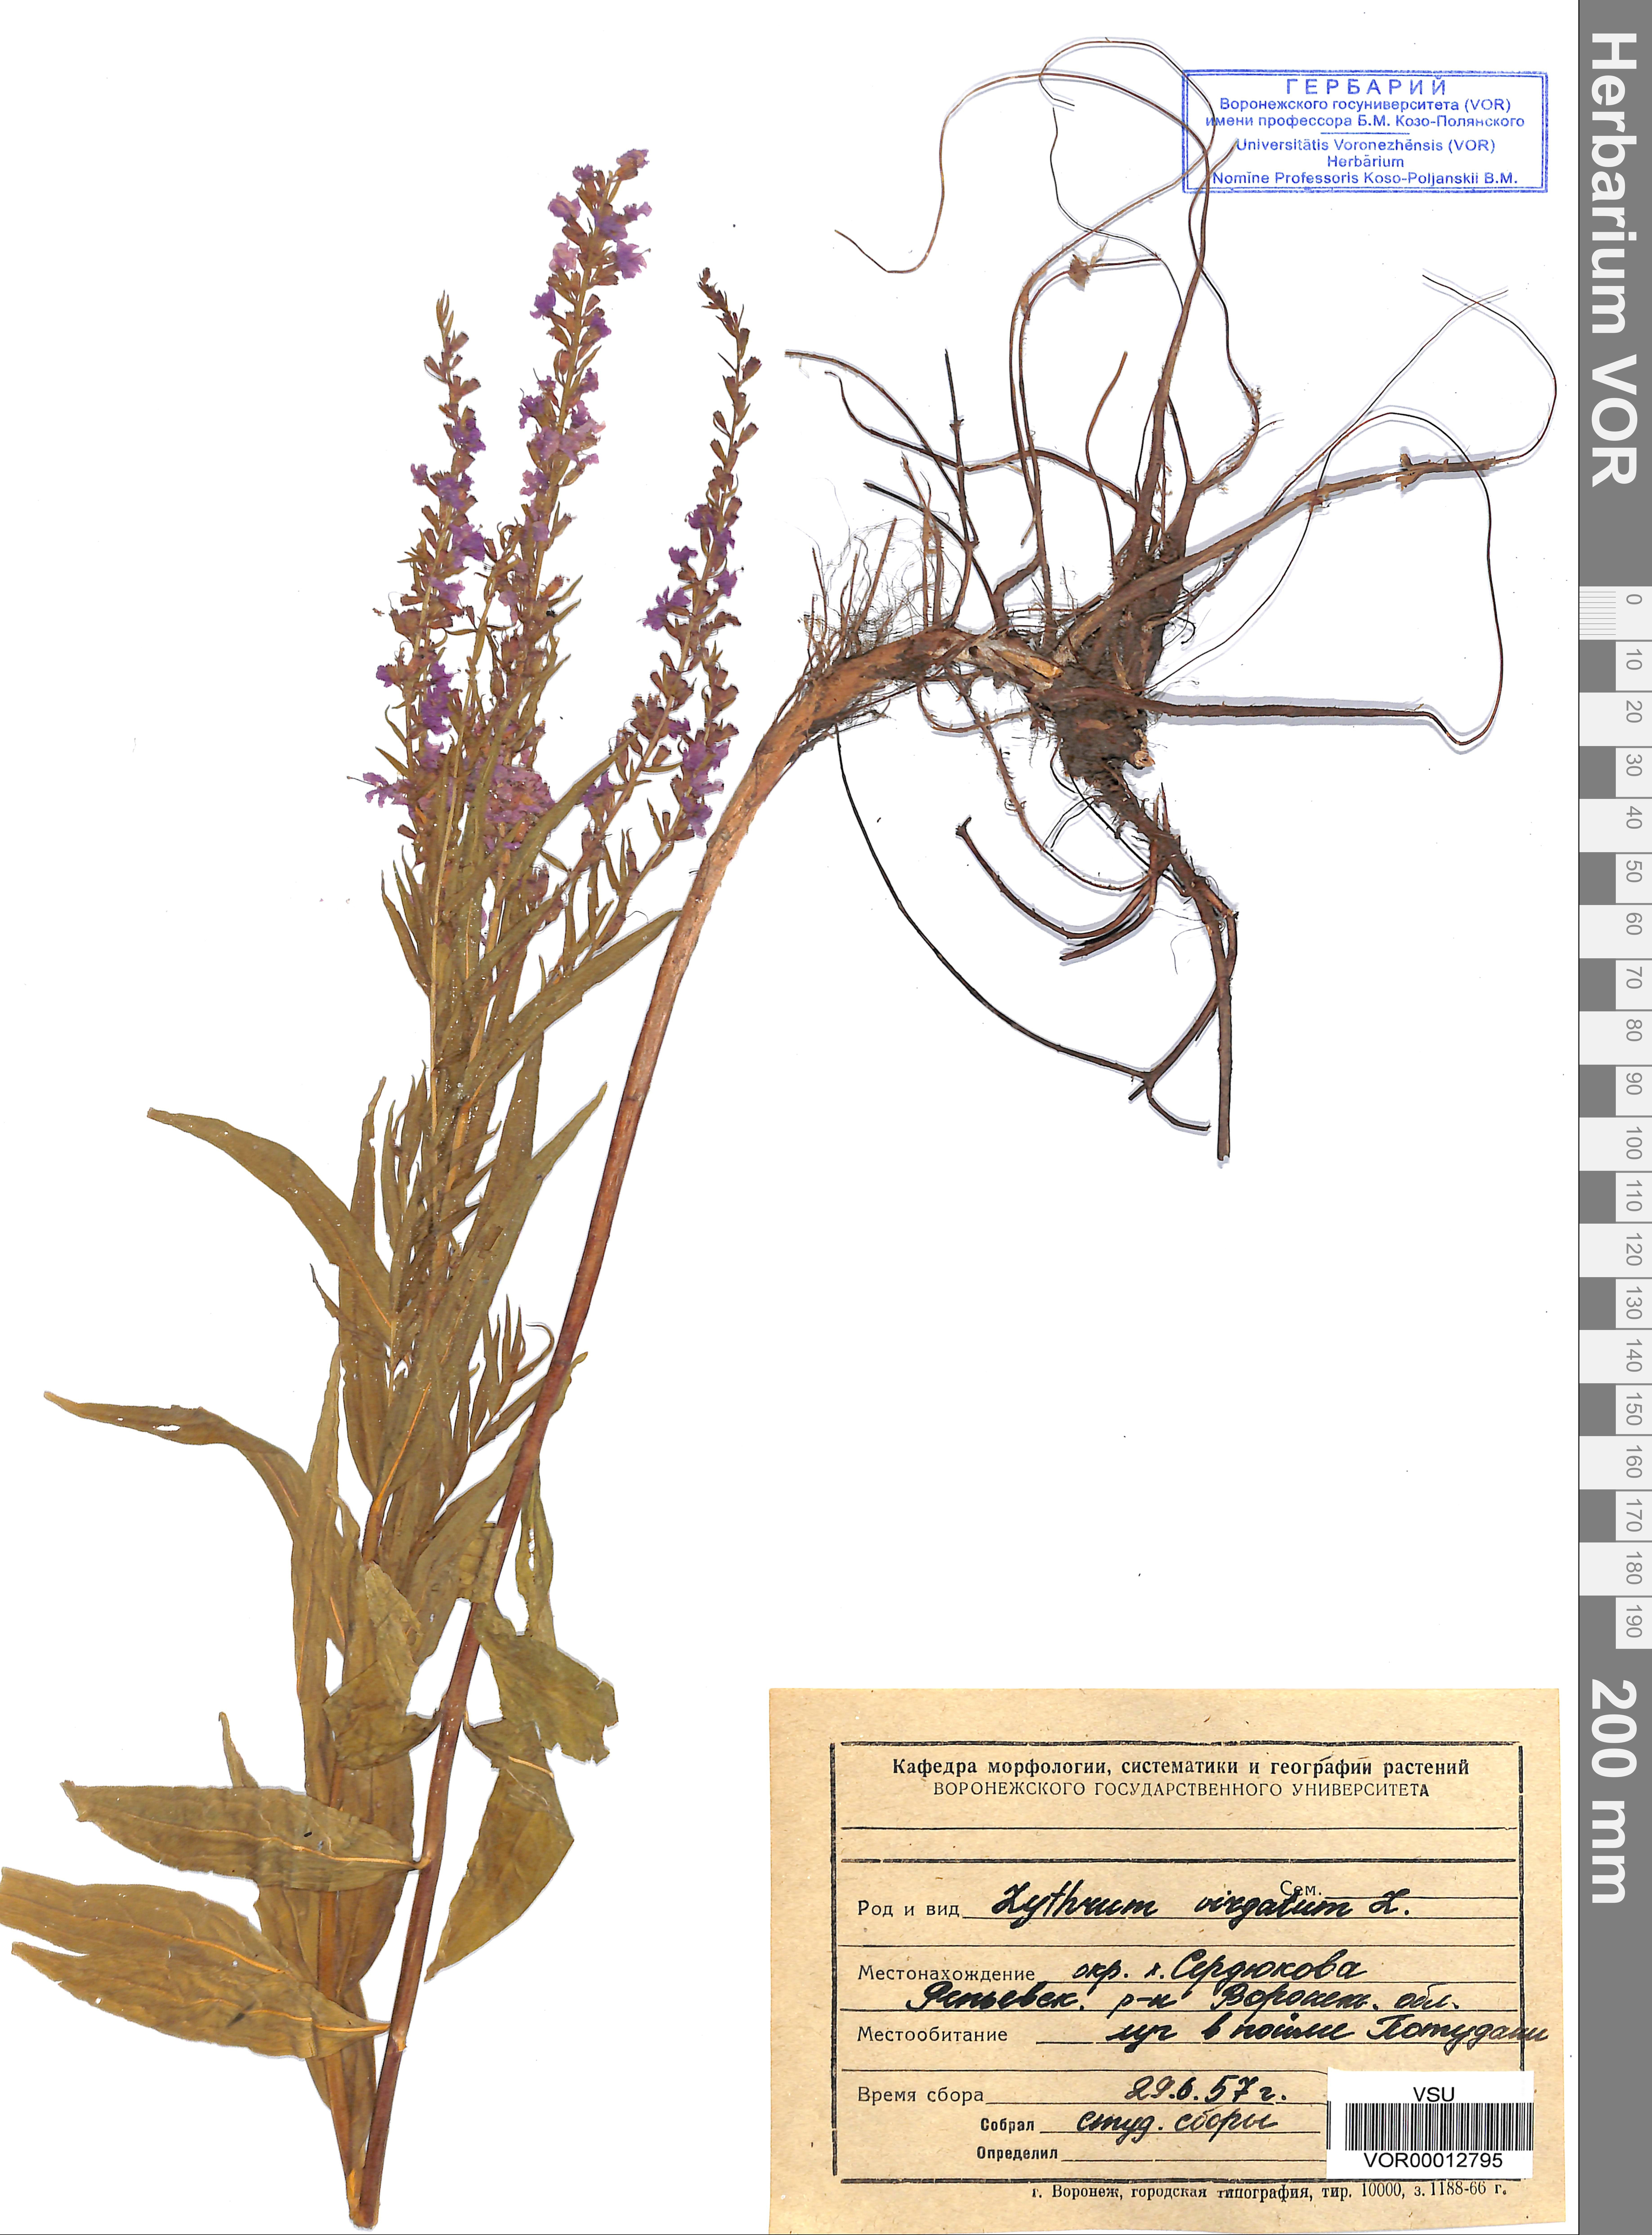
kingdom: Plantae
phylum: Tracheophyta
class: Magnoliopsida
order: Myrtales
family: Lythraceae
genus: Lythrum
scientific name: Lythrum virgatum
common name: European wand loosestrife
